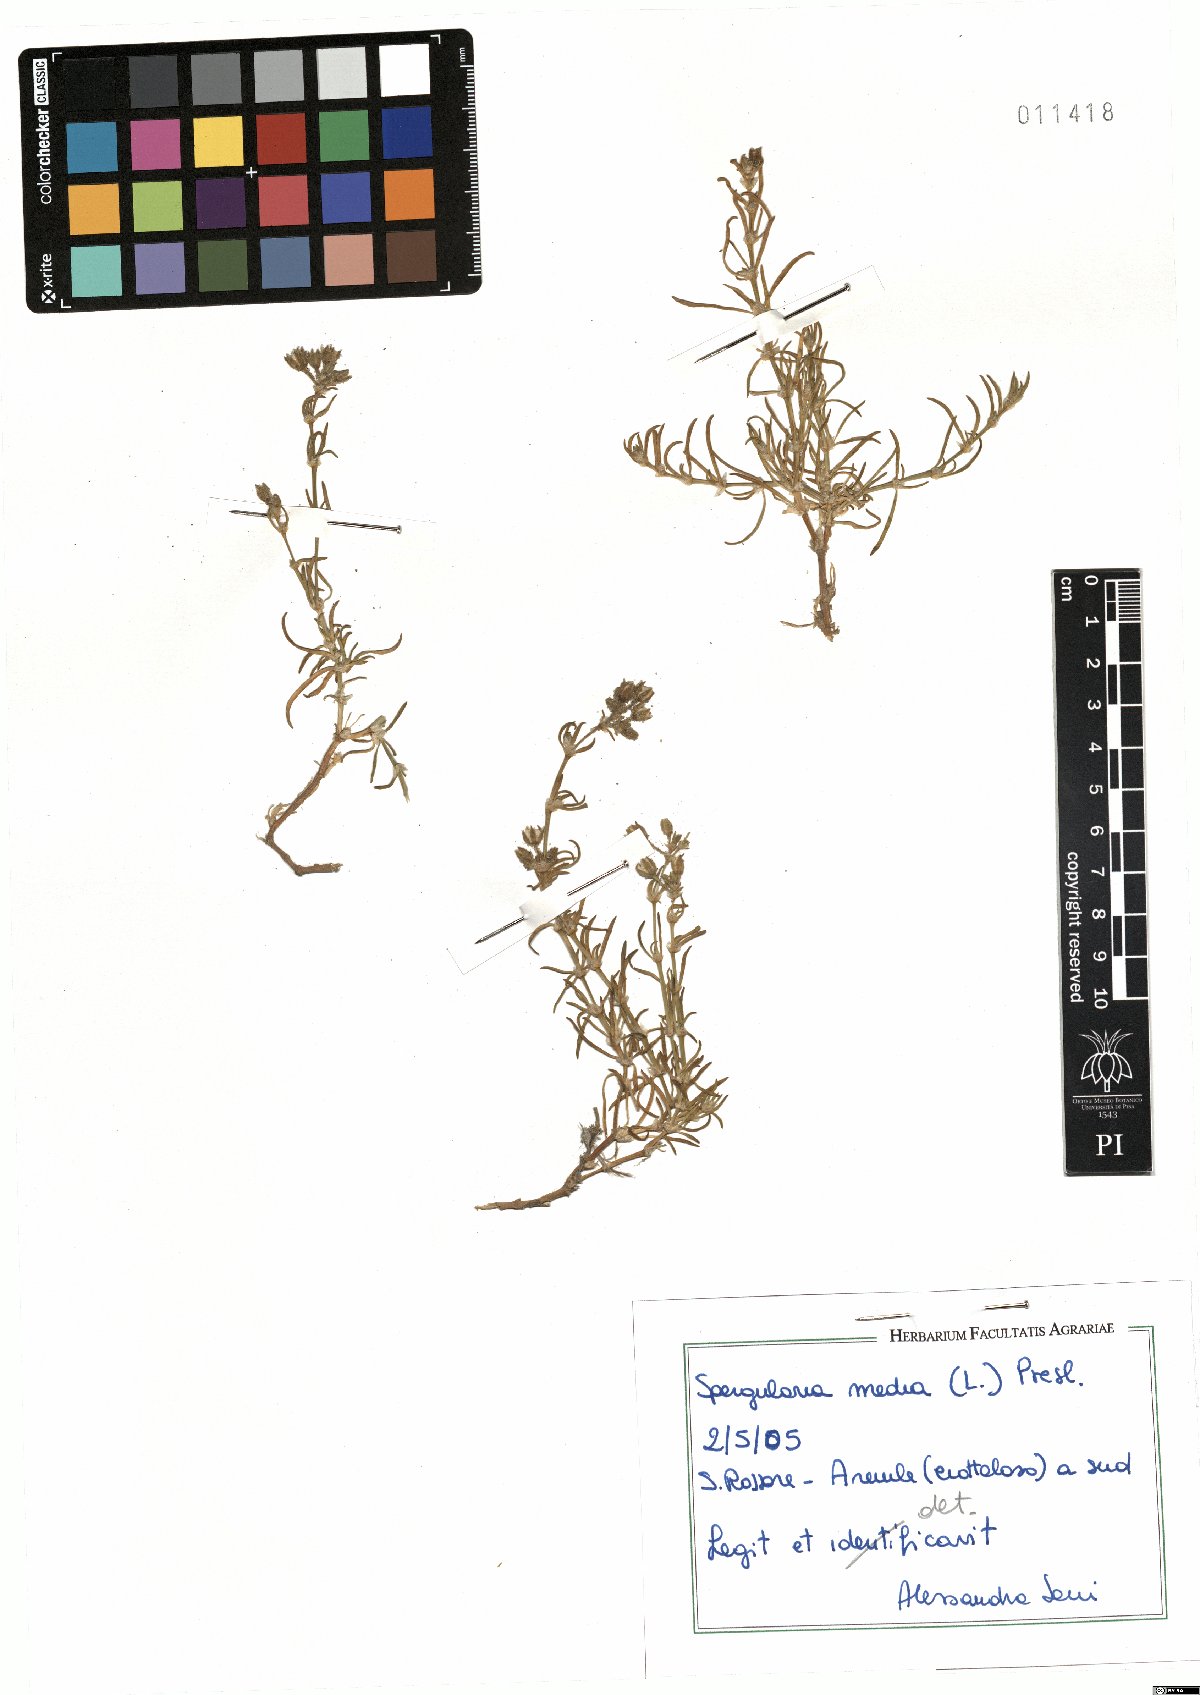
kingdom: Plantae
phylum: Tracheophyta
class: Magnoliopsida
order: Caryophyllales
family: Caryophyllaceae
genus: Spergularia
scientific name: Spergularia media
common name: Greater sea-spurrey
